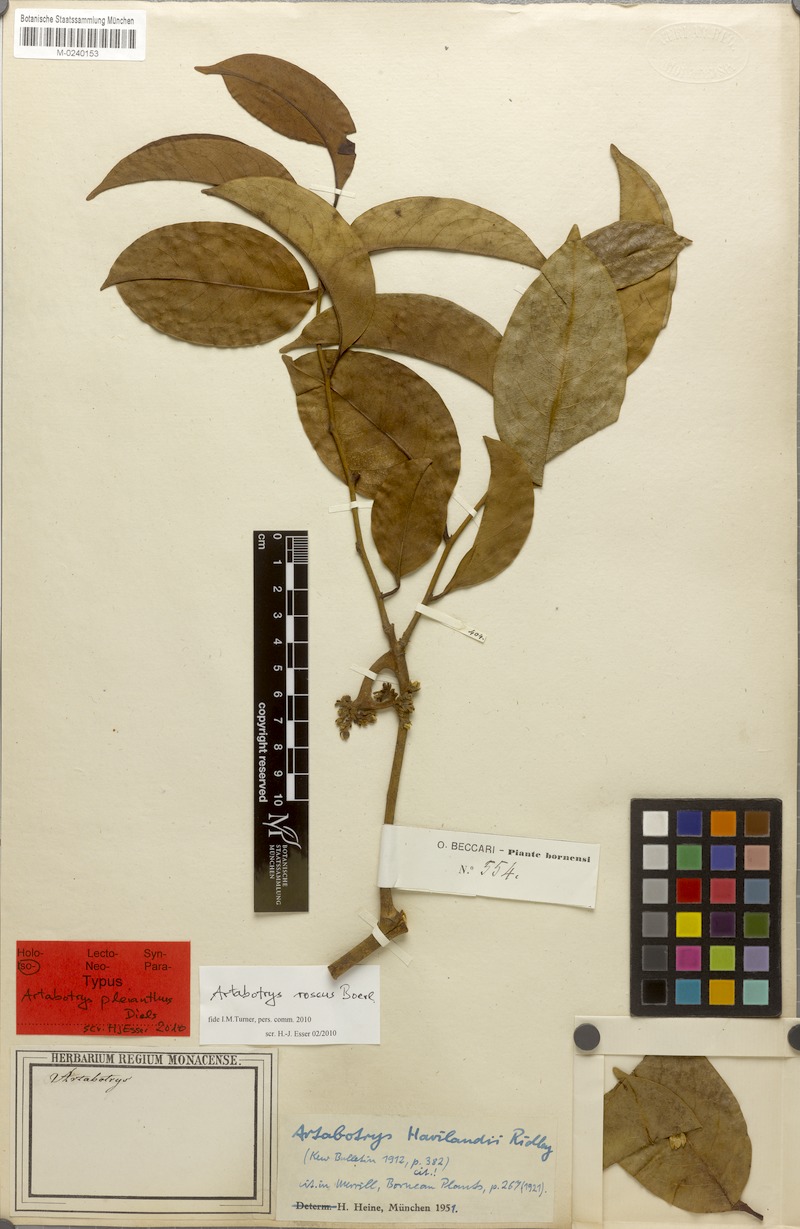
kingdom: Plantae
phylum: Tracheophyta
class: Magnoliopsida
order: Magnoliales
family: Annonaceae
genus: Artabotrys
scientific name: Artabotrys roseus
